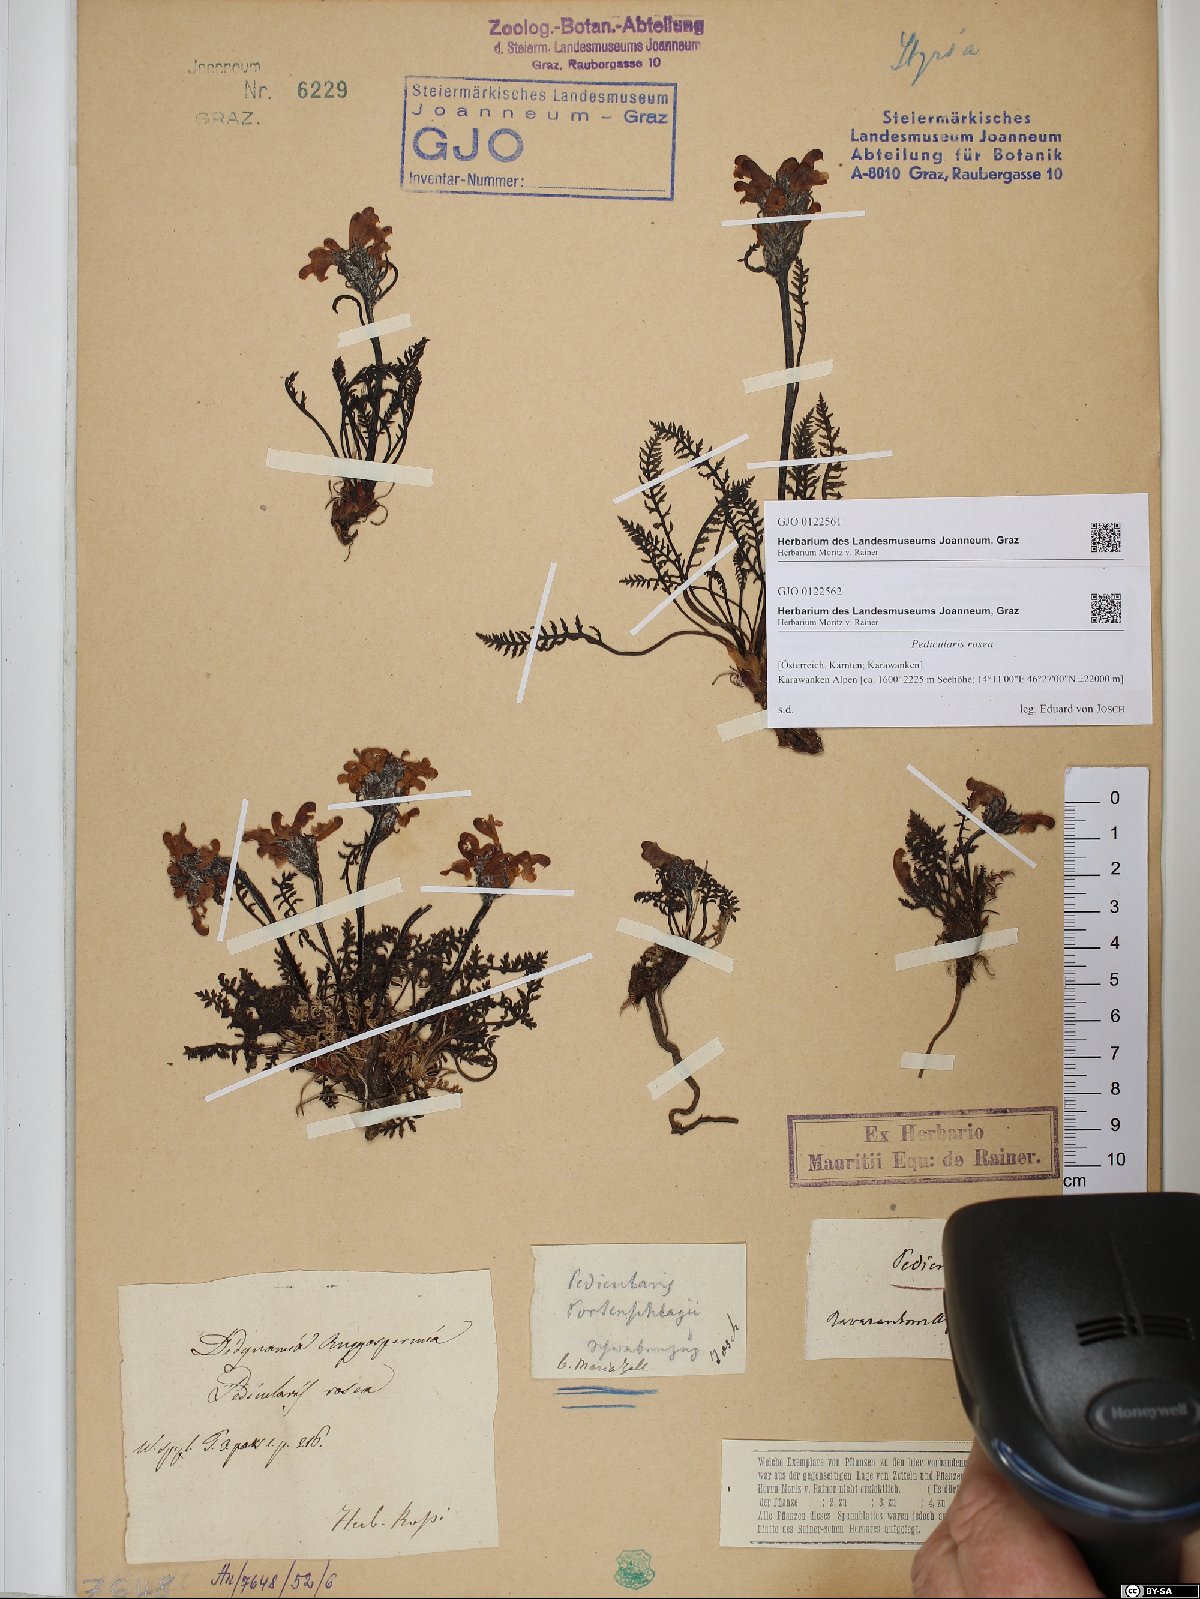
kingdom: Plantae
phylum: Tracheophyta
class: Magnoliopsida
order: Lamiales
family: Orobanchaceae
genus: Pedicularis
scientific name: Pedicularis rosea
